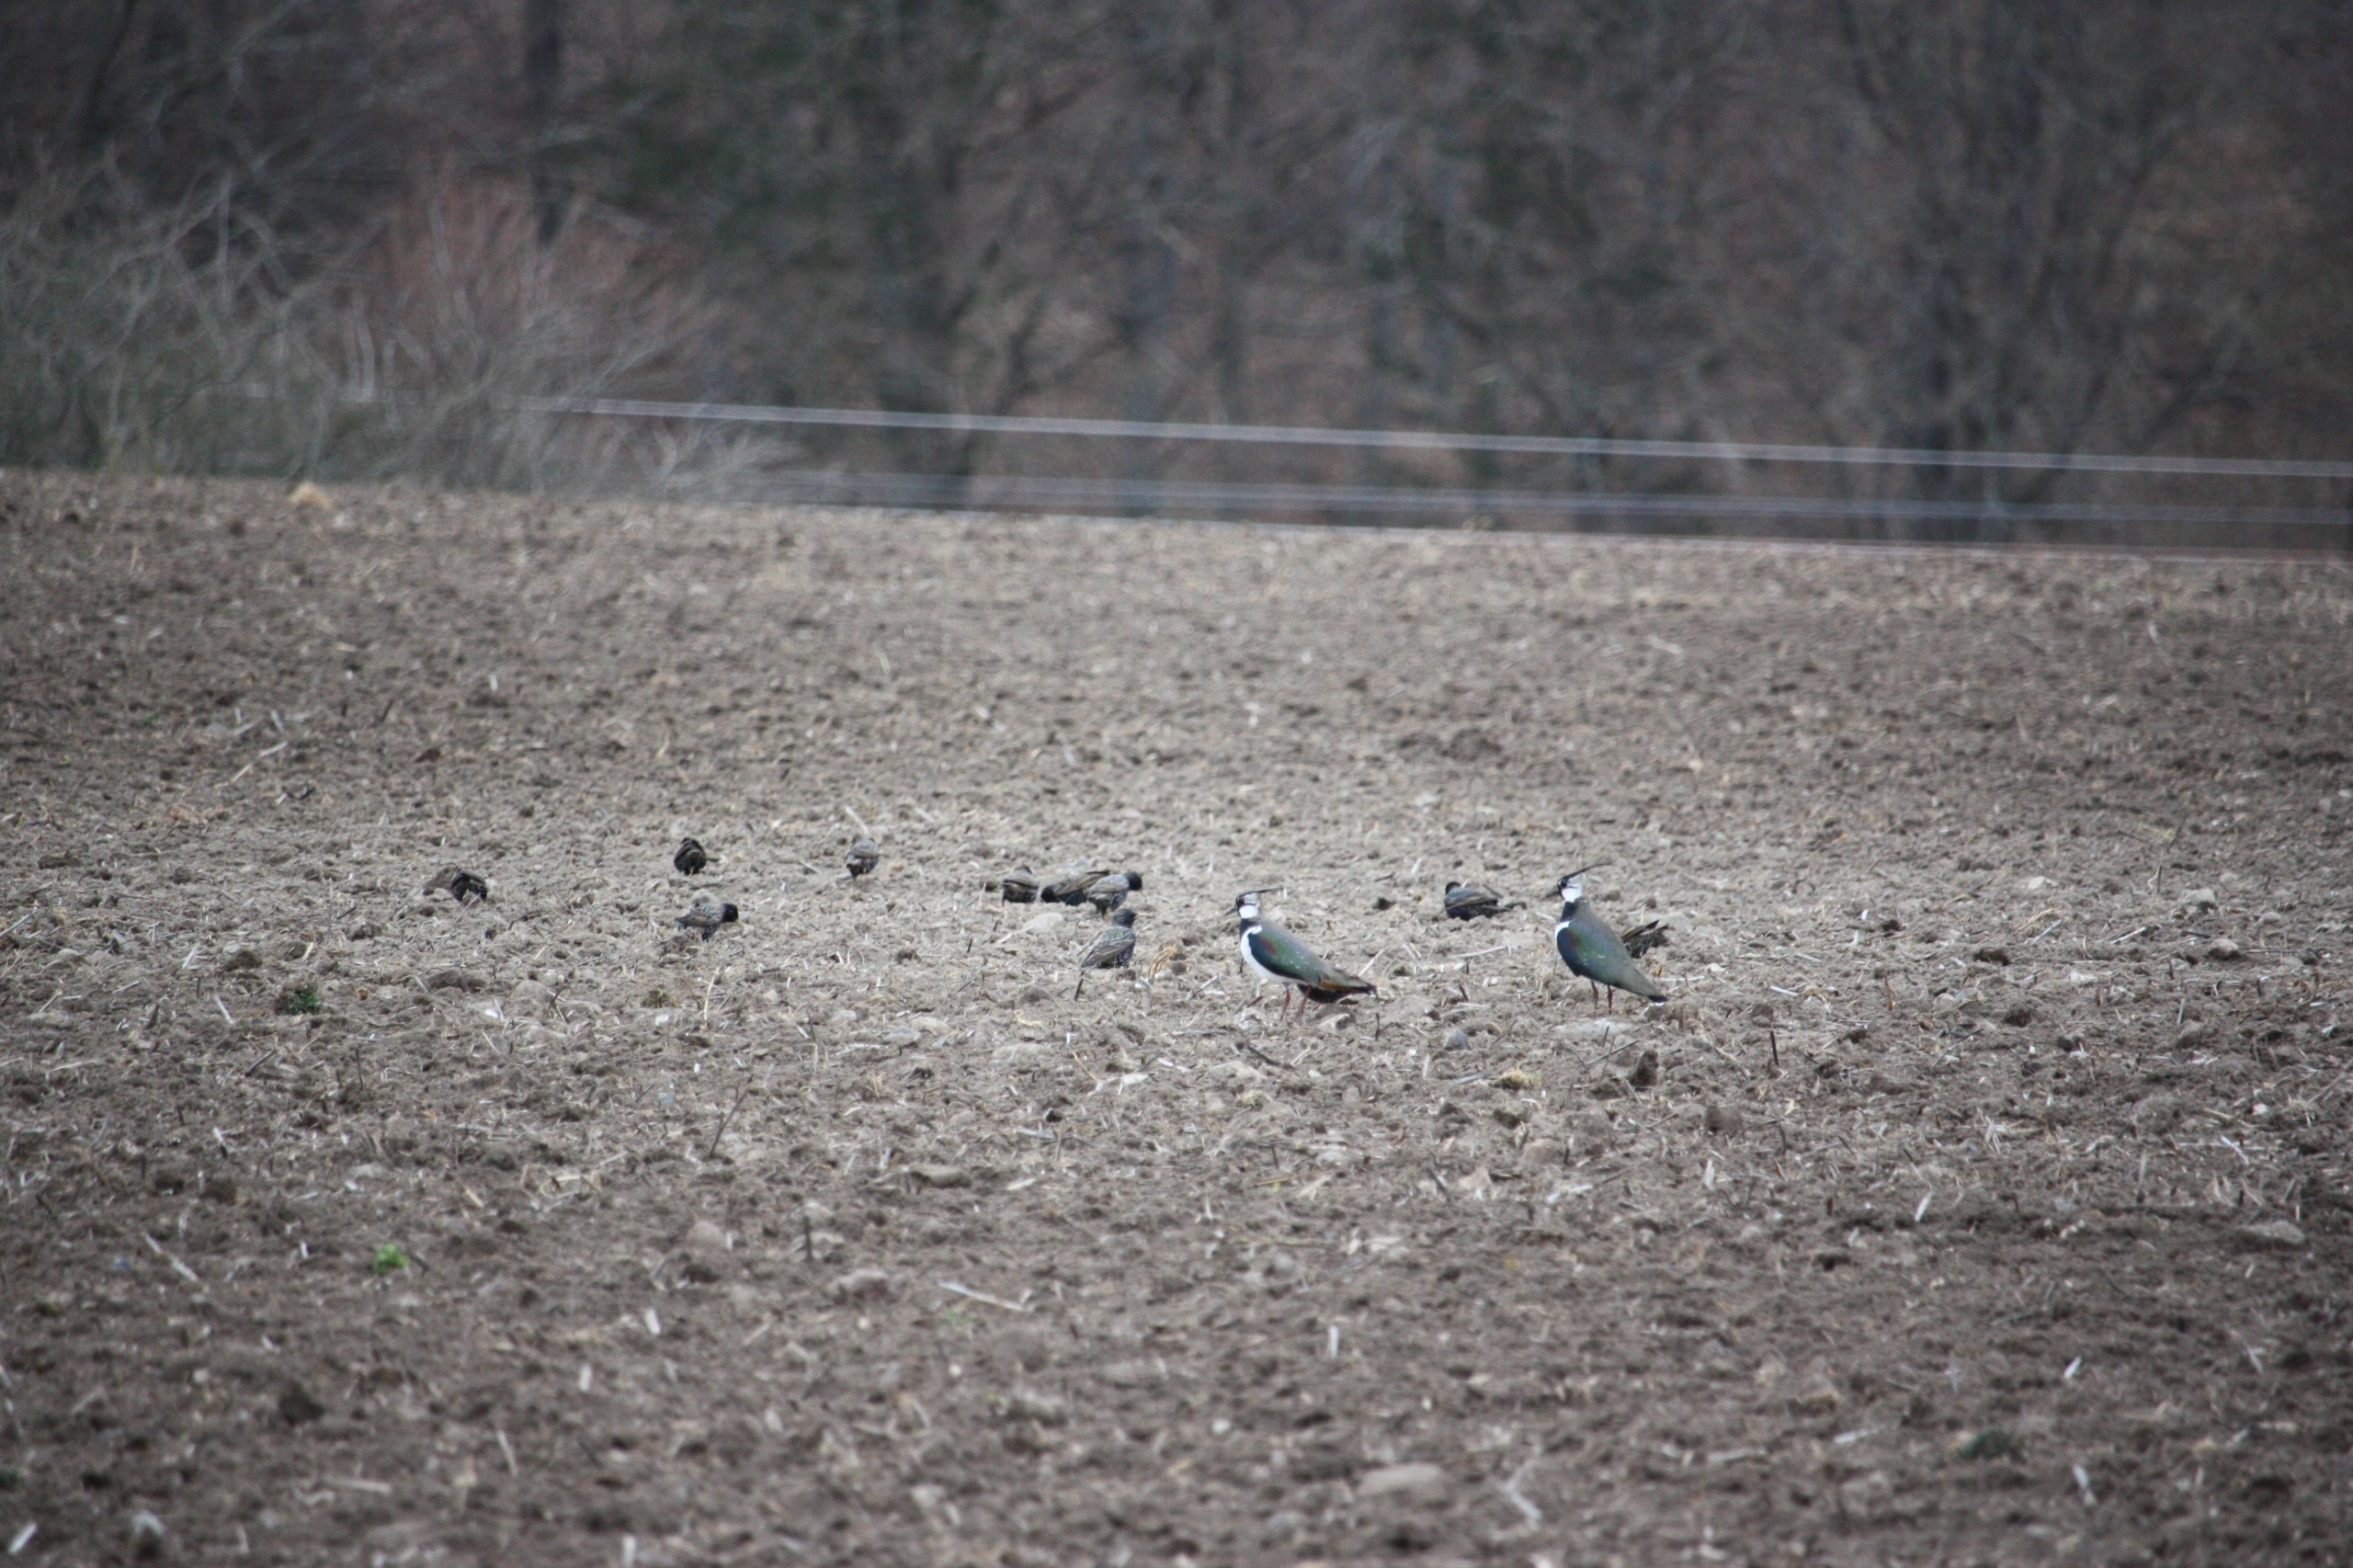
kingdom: Animalia
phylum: Chordata
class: Aves
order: Charadriiformes
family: Charadriidae
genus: Vanellus
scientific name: Vanellus vanellus
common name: Vibe
